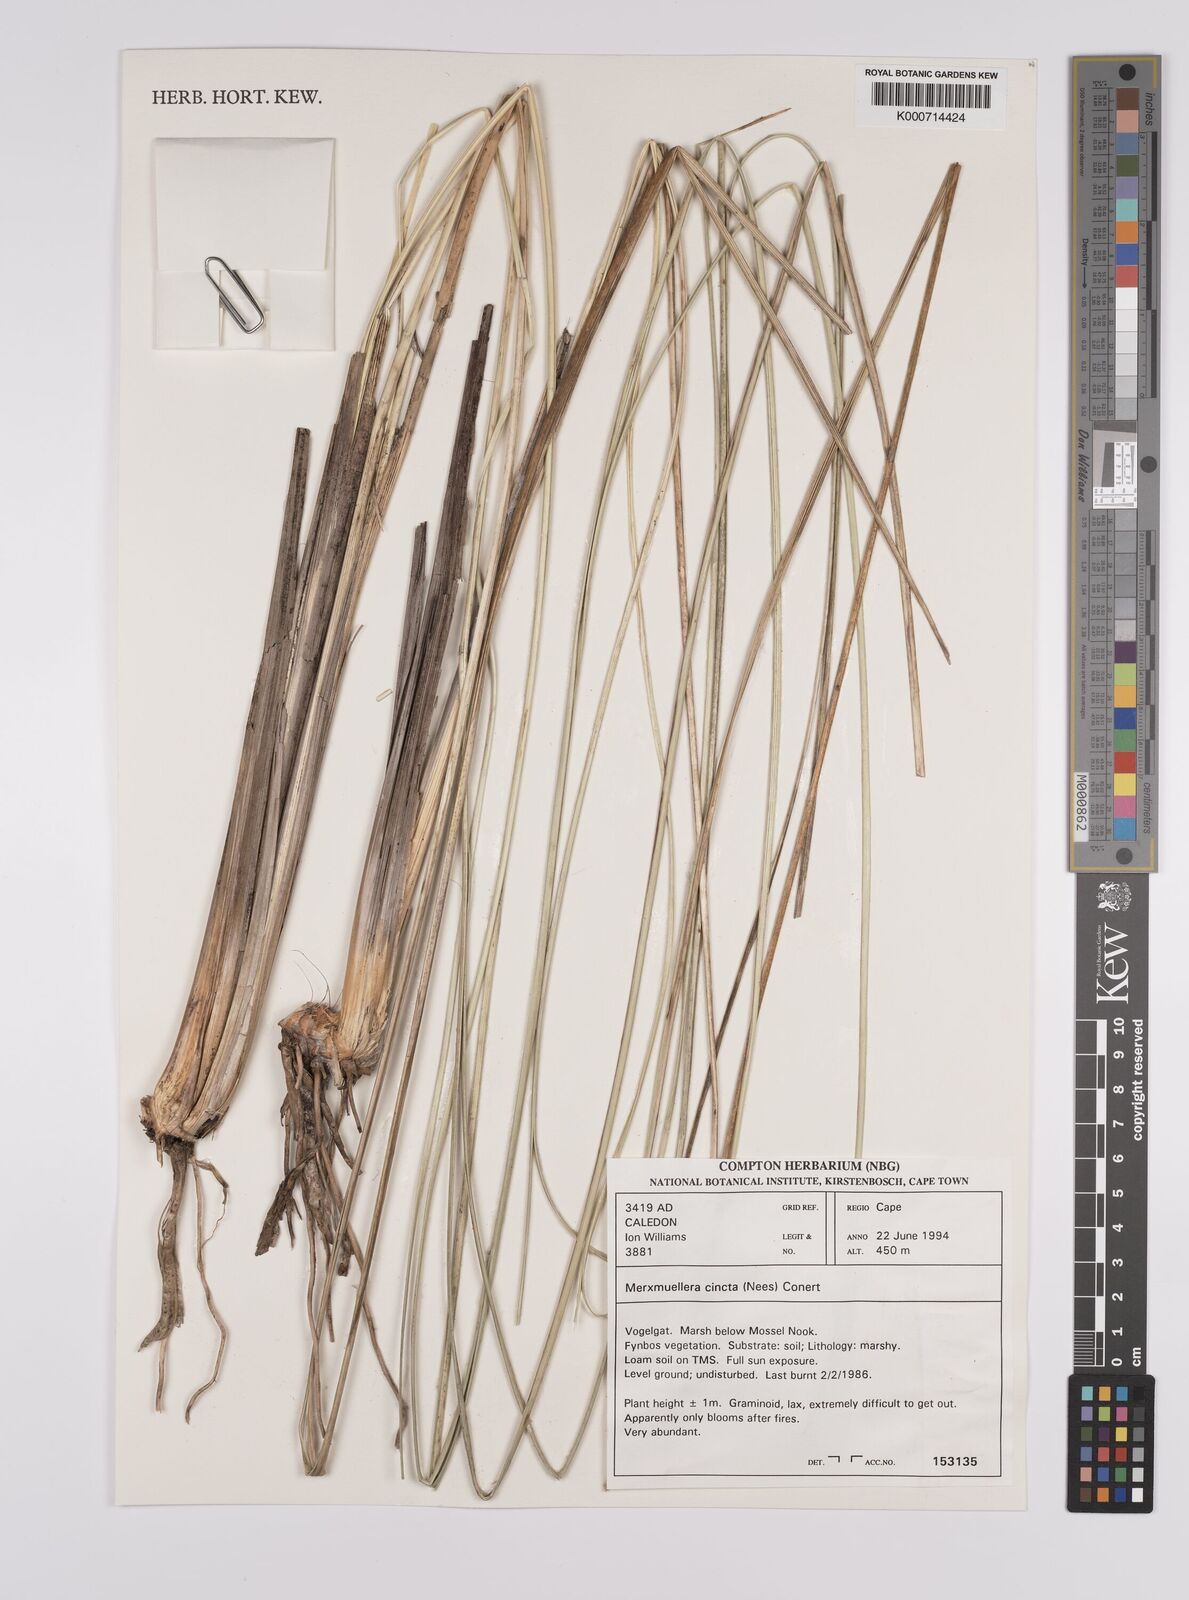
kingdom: Plantae
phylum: Tracheophyta
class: Liliopsida
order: Poales
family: Poaceae
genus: Rytidosperma
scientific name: Rytidosperma
